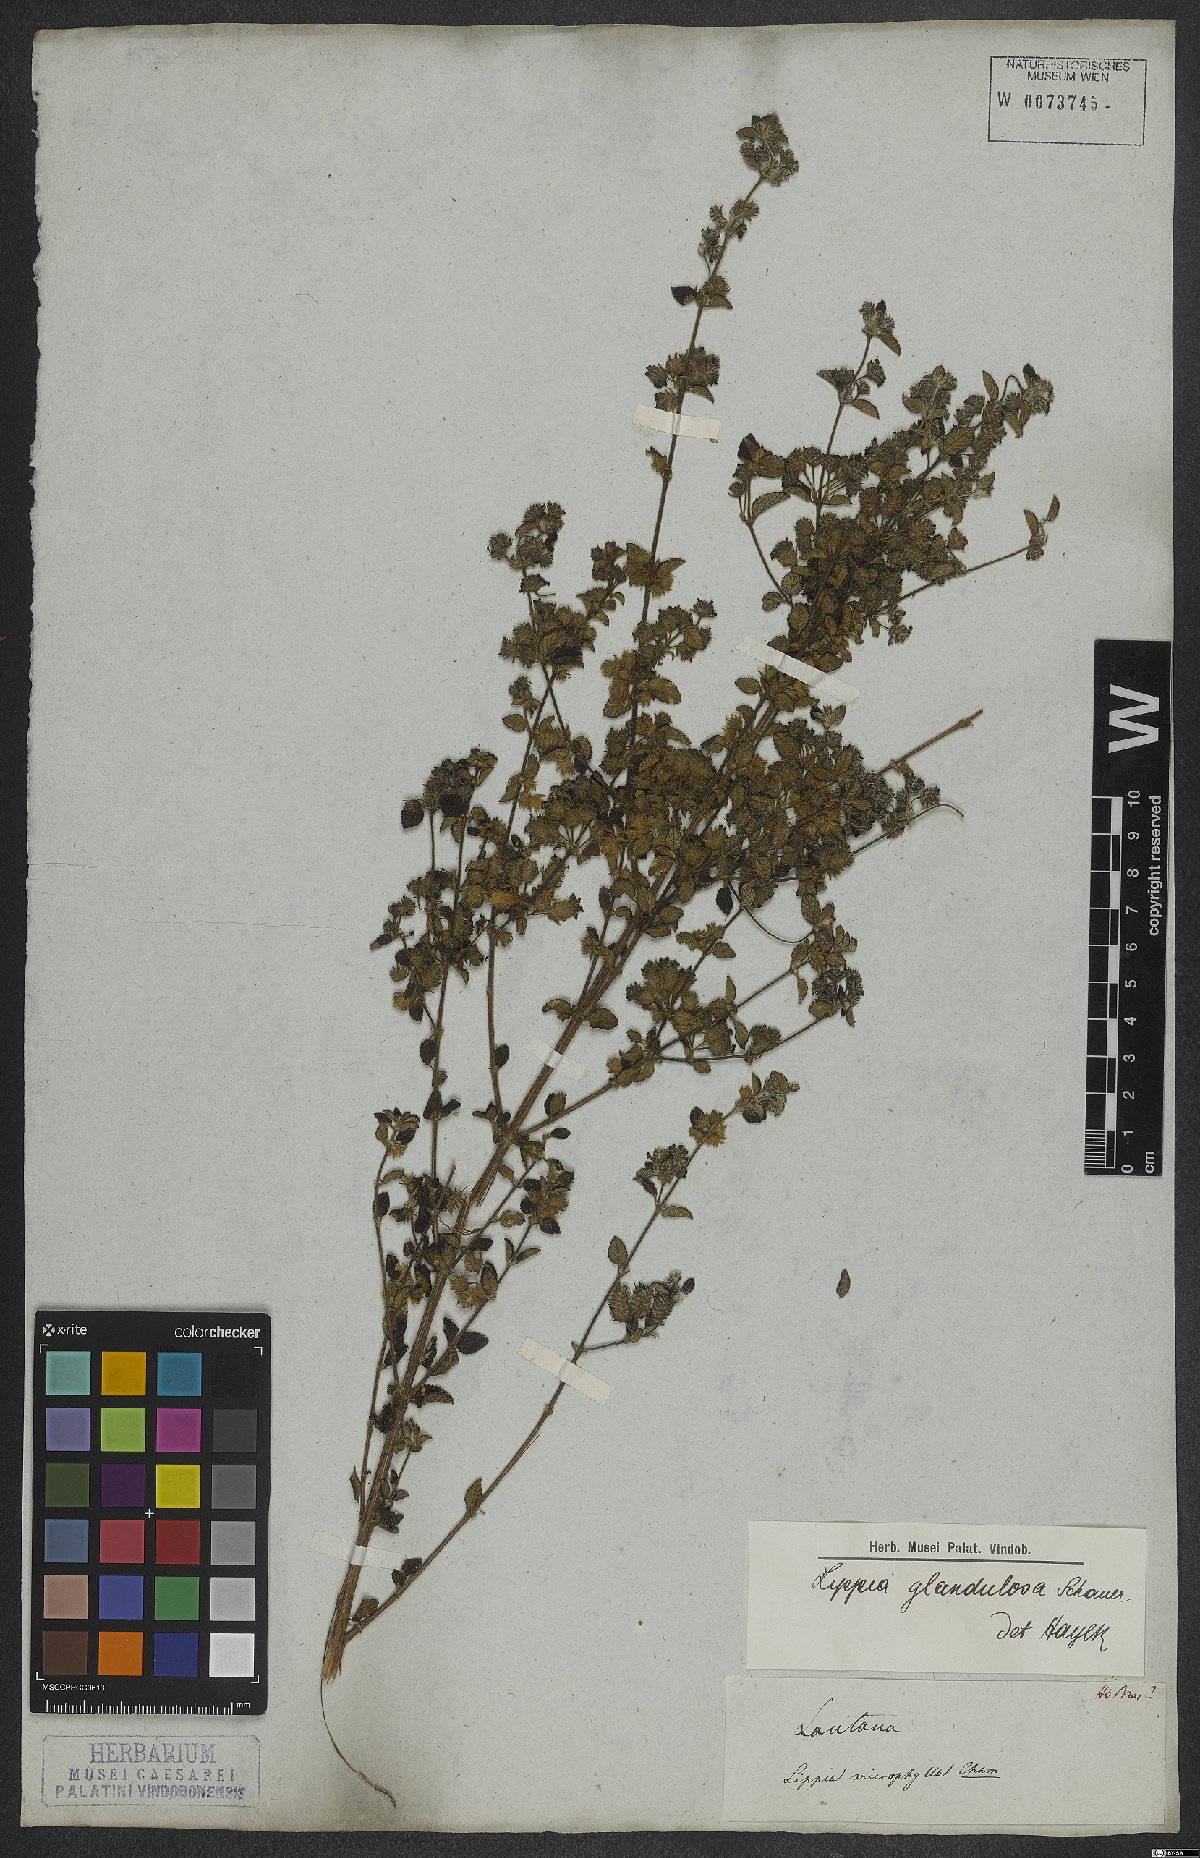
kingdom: Plantae
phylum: Tracheophyta
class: Magnoliopsida
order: Lamiales
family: Verbenaceae
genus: Lippia
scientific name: Lippia origanoides
